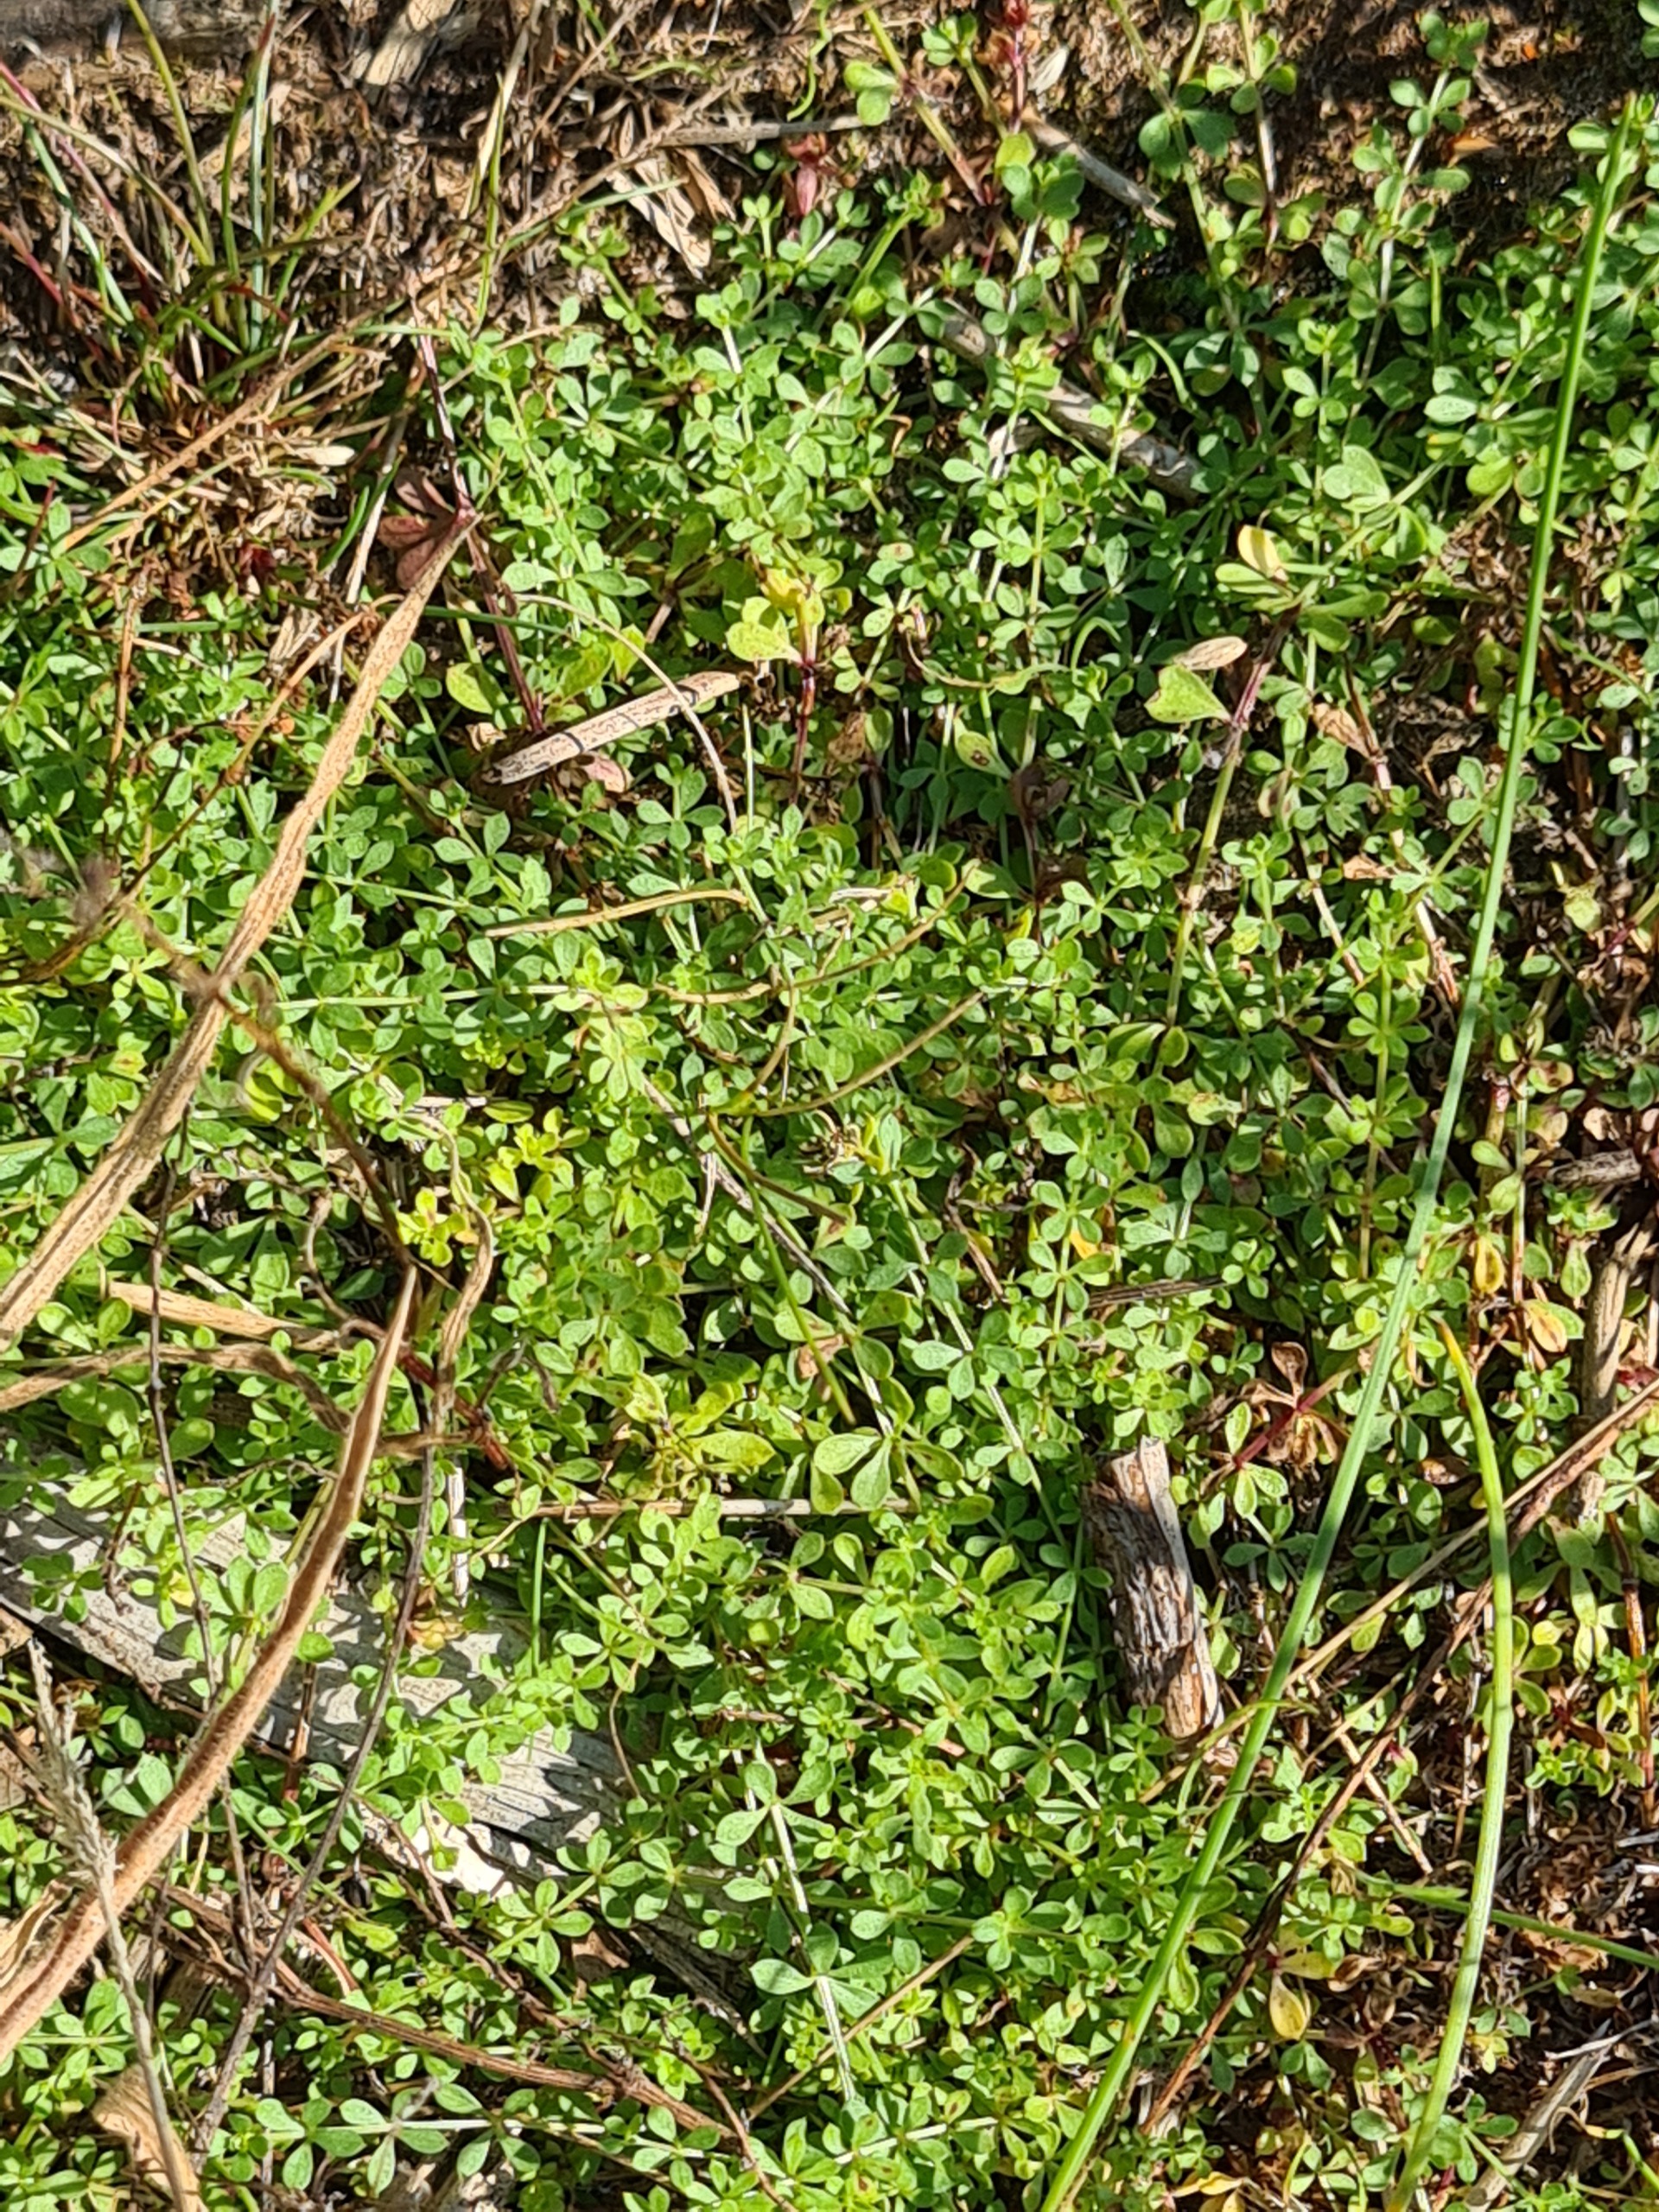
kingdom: Plantae
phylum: Tracheophyta
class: Magnoliopsida
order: Gentianales
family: Rubiaceae
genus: Galium
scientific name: Galium saxatile
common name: Lyng-snerre
